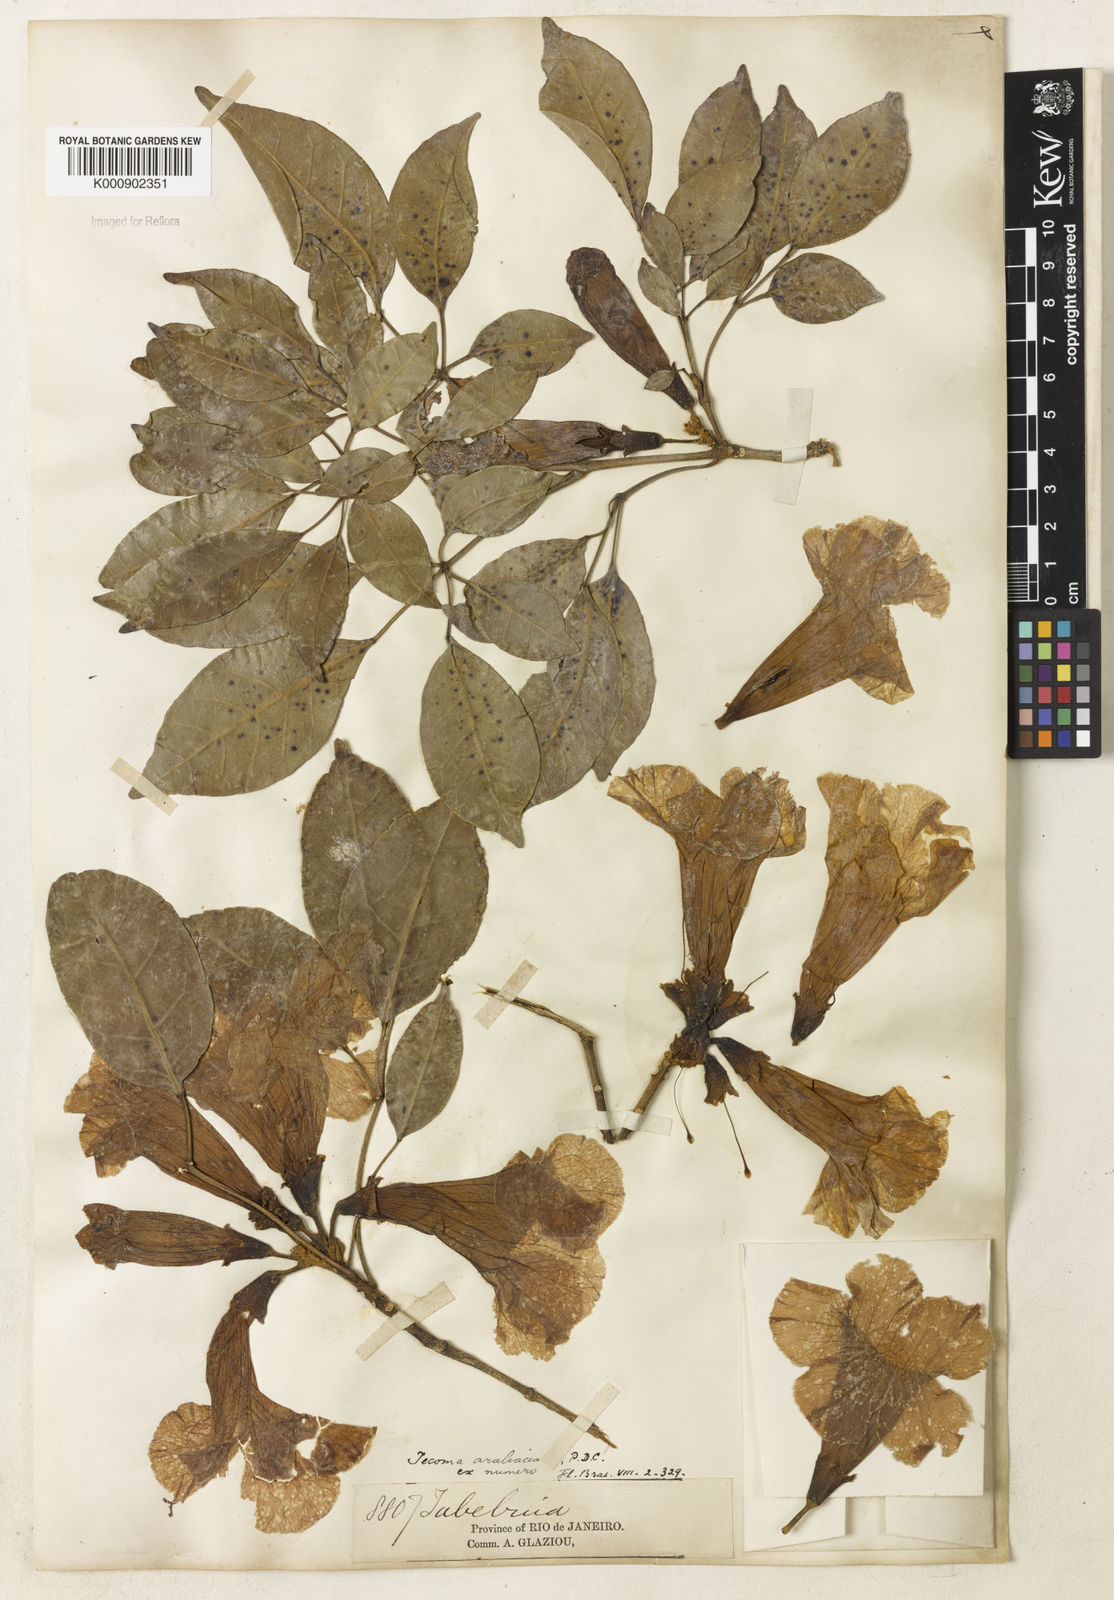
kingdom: Plantae
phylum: Tracheophyta
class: Magnoliopsida
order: Lamiales
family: Bignoniaceae
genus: Handroanthus
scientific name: Handroanthus serratifolius
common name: Yellow ipe
